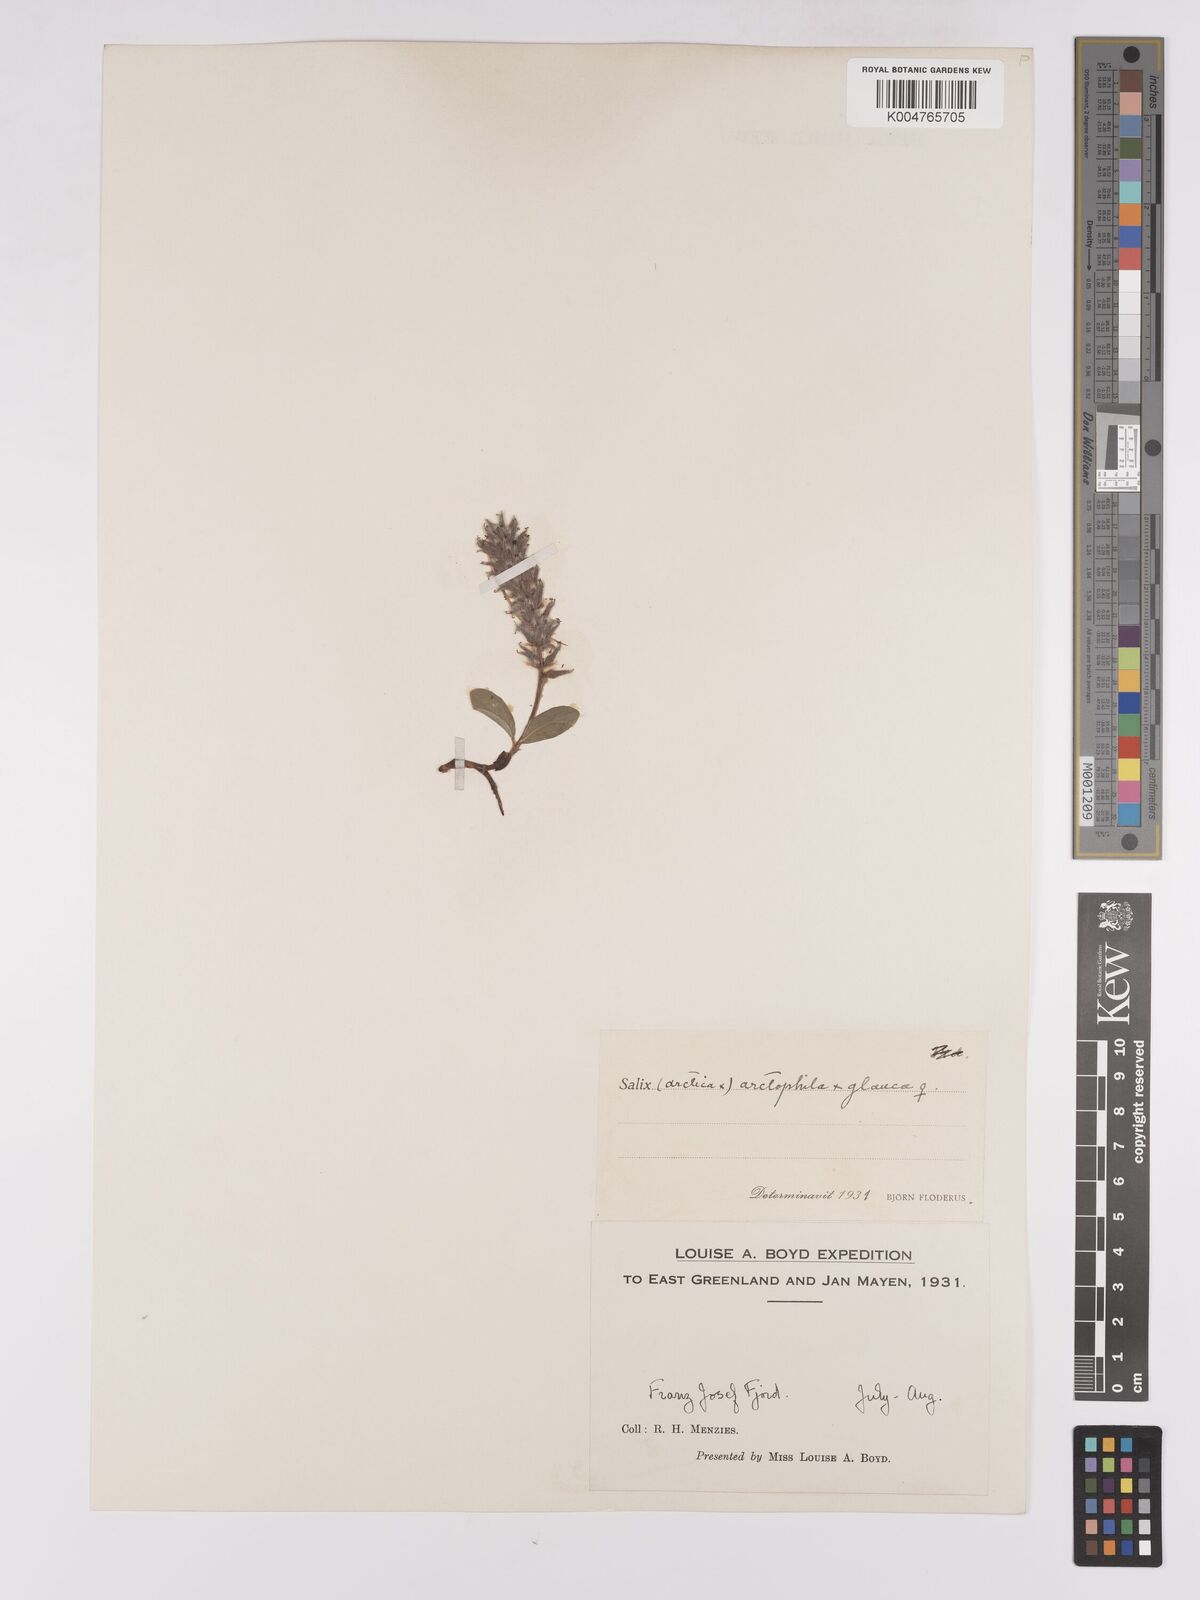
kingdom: Plantae
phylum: Tracheophyta
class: Magnoliopsida
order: Malpighiales
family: Salicaceae
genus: Salix
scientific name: Salix arctophila
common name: Greenland willow
